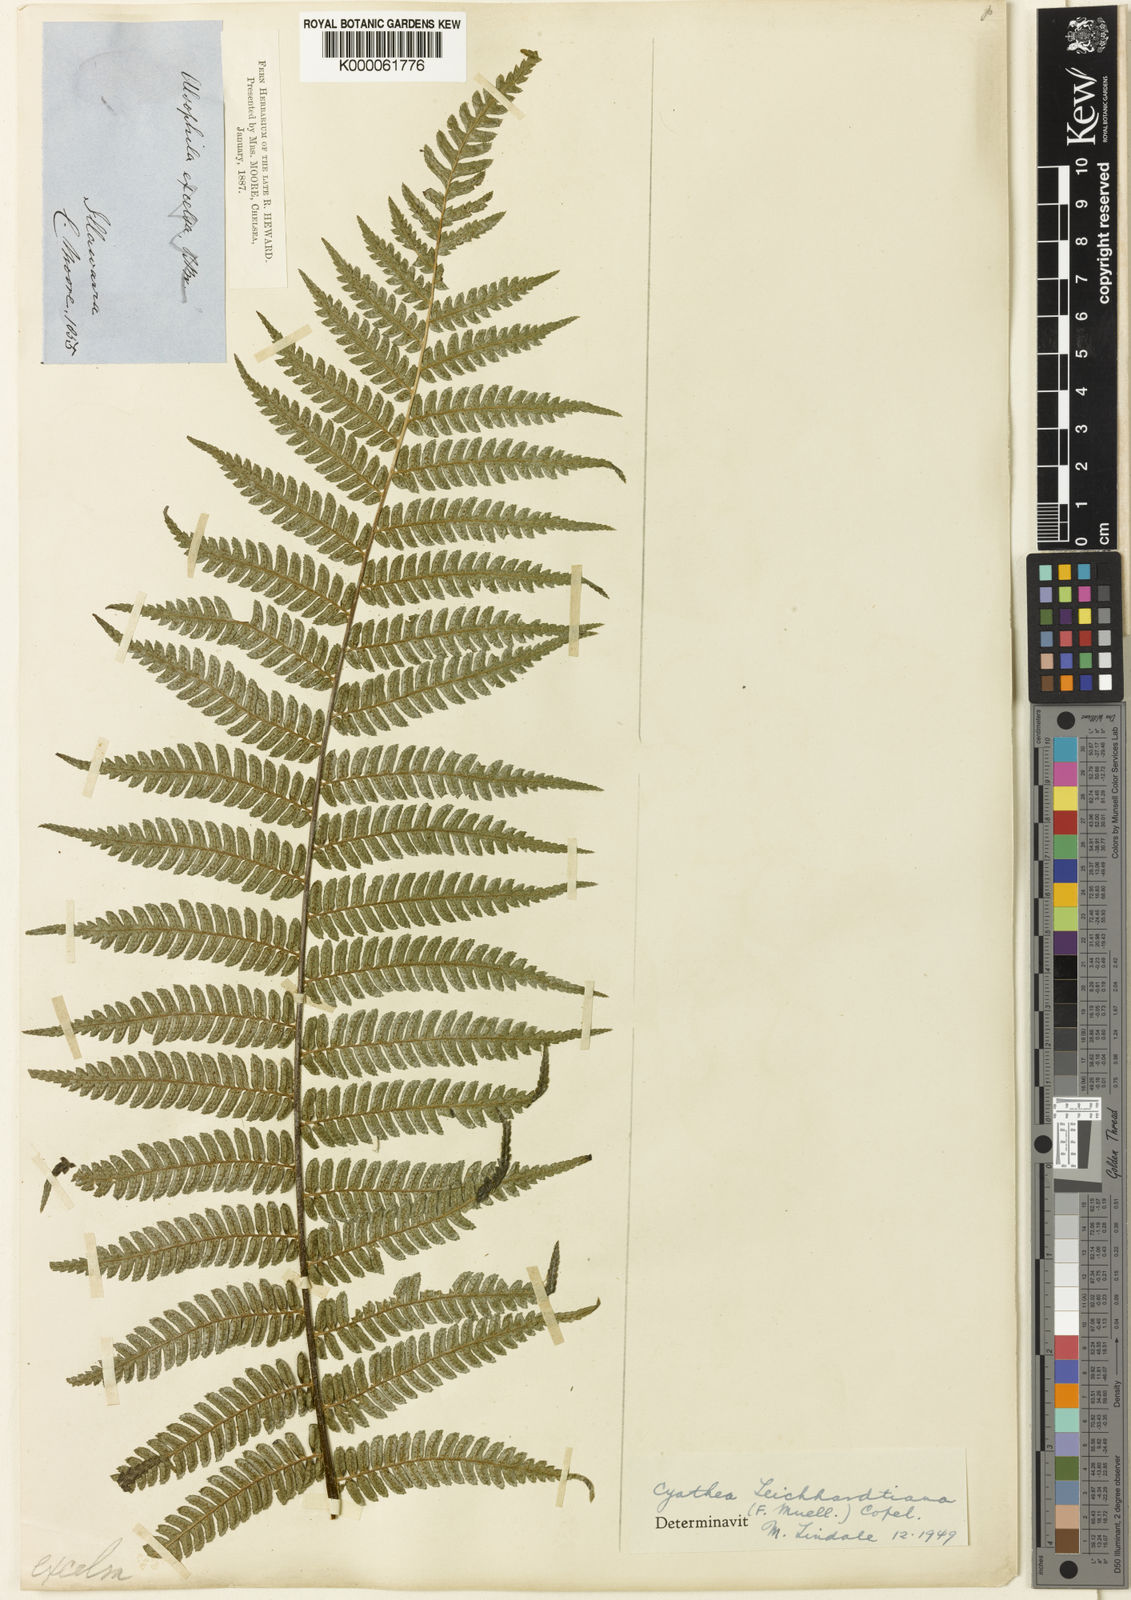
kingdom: Plantae
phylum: Tracheophyta
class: Polypodiopsida
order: Cyatheales
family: Cyatheaceae
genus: Alsophila
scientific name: Alsophila leichhardtiana
